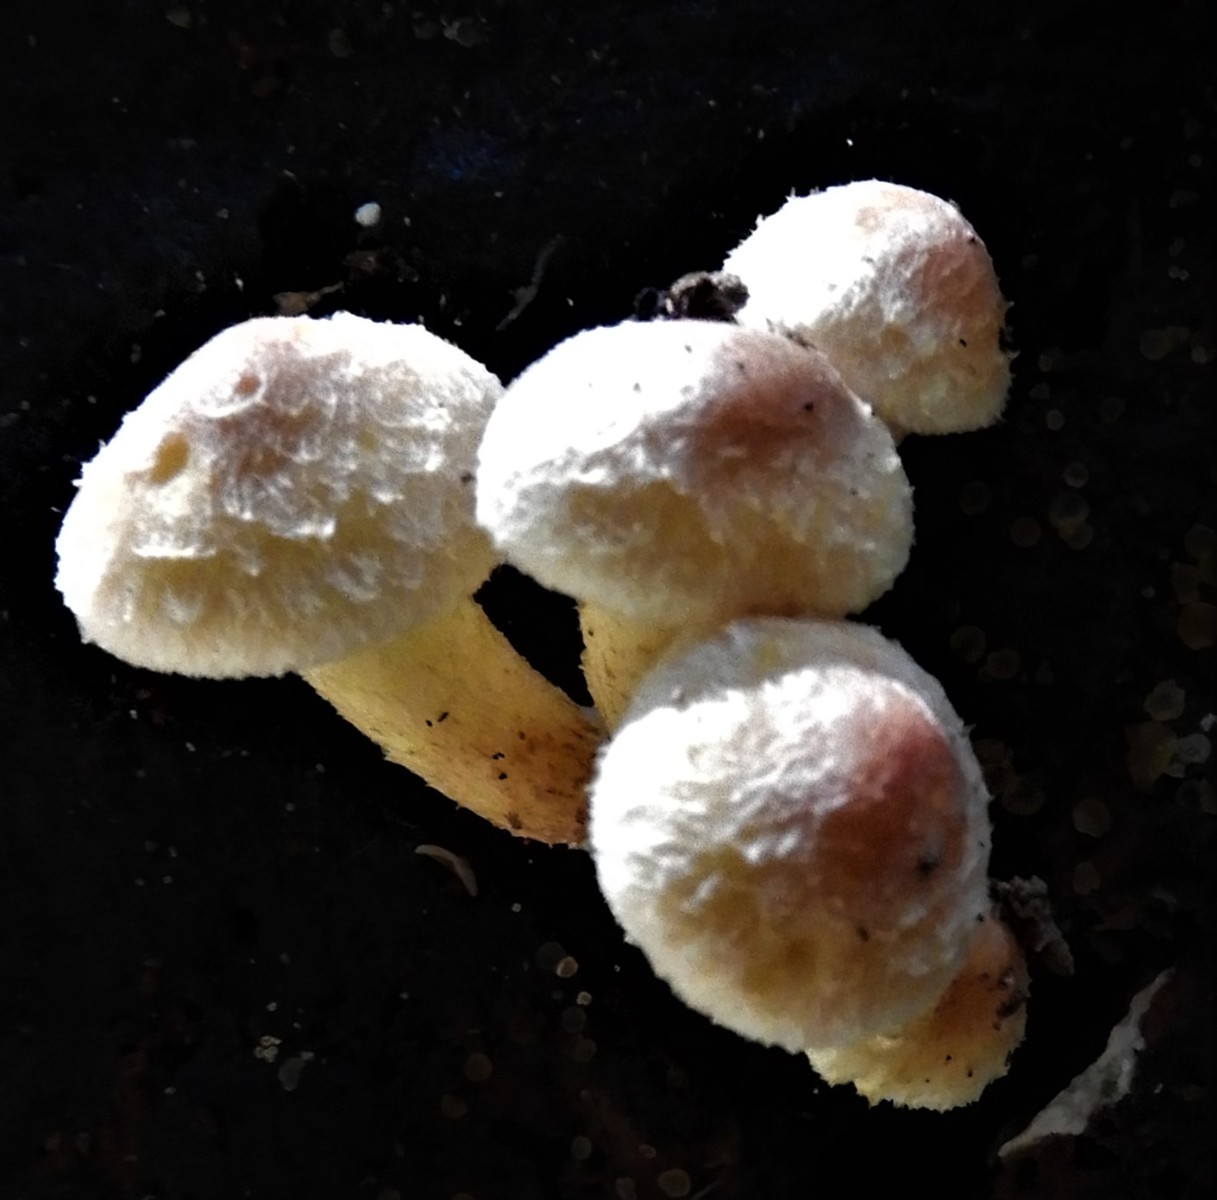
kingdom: Fungi
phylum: Basidiomycota
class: Agaricomycetes
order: Agaricales
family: Strophariaceae
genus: Hypholoma
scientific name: Hypholoma fasciculare
